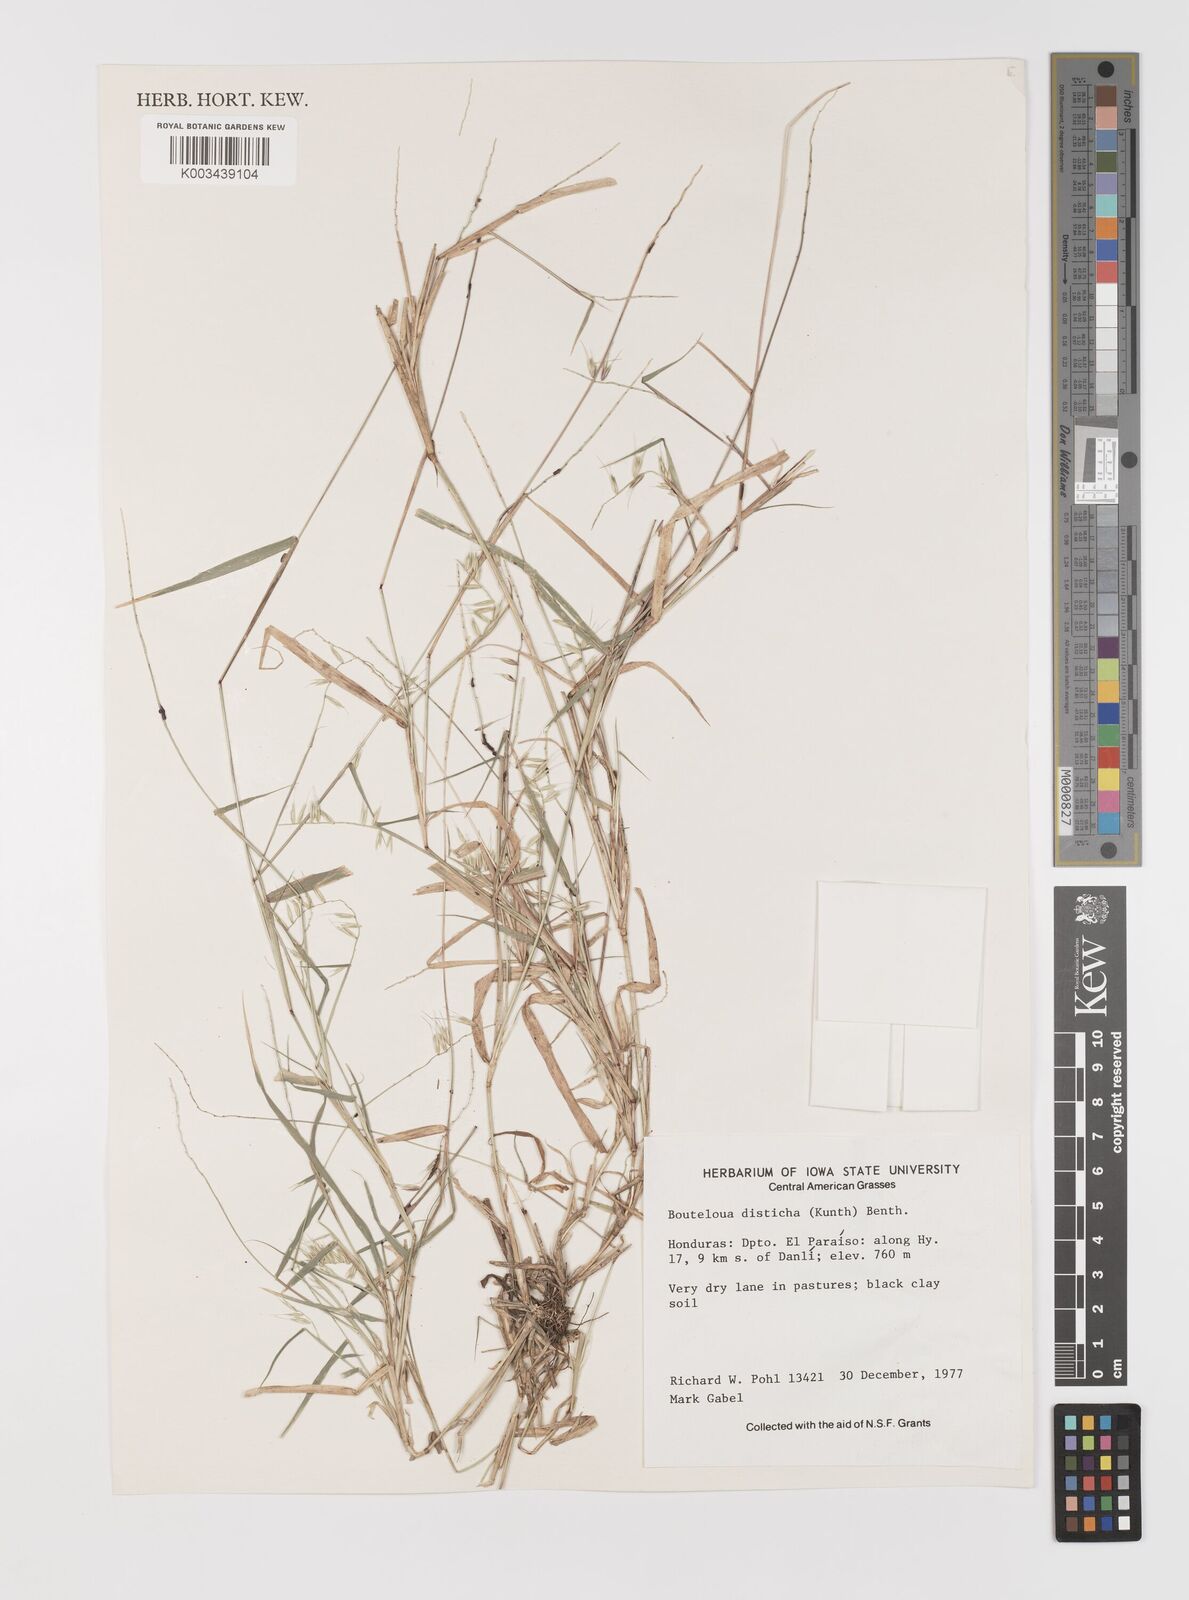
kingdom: Plantae
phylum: Tracheophyta
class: Liliopsida
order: Poales
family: Poaceae
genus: Bouteloua
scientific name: Bouteloua disticha
